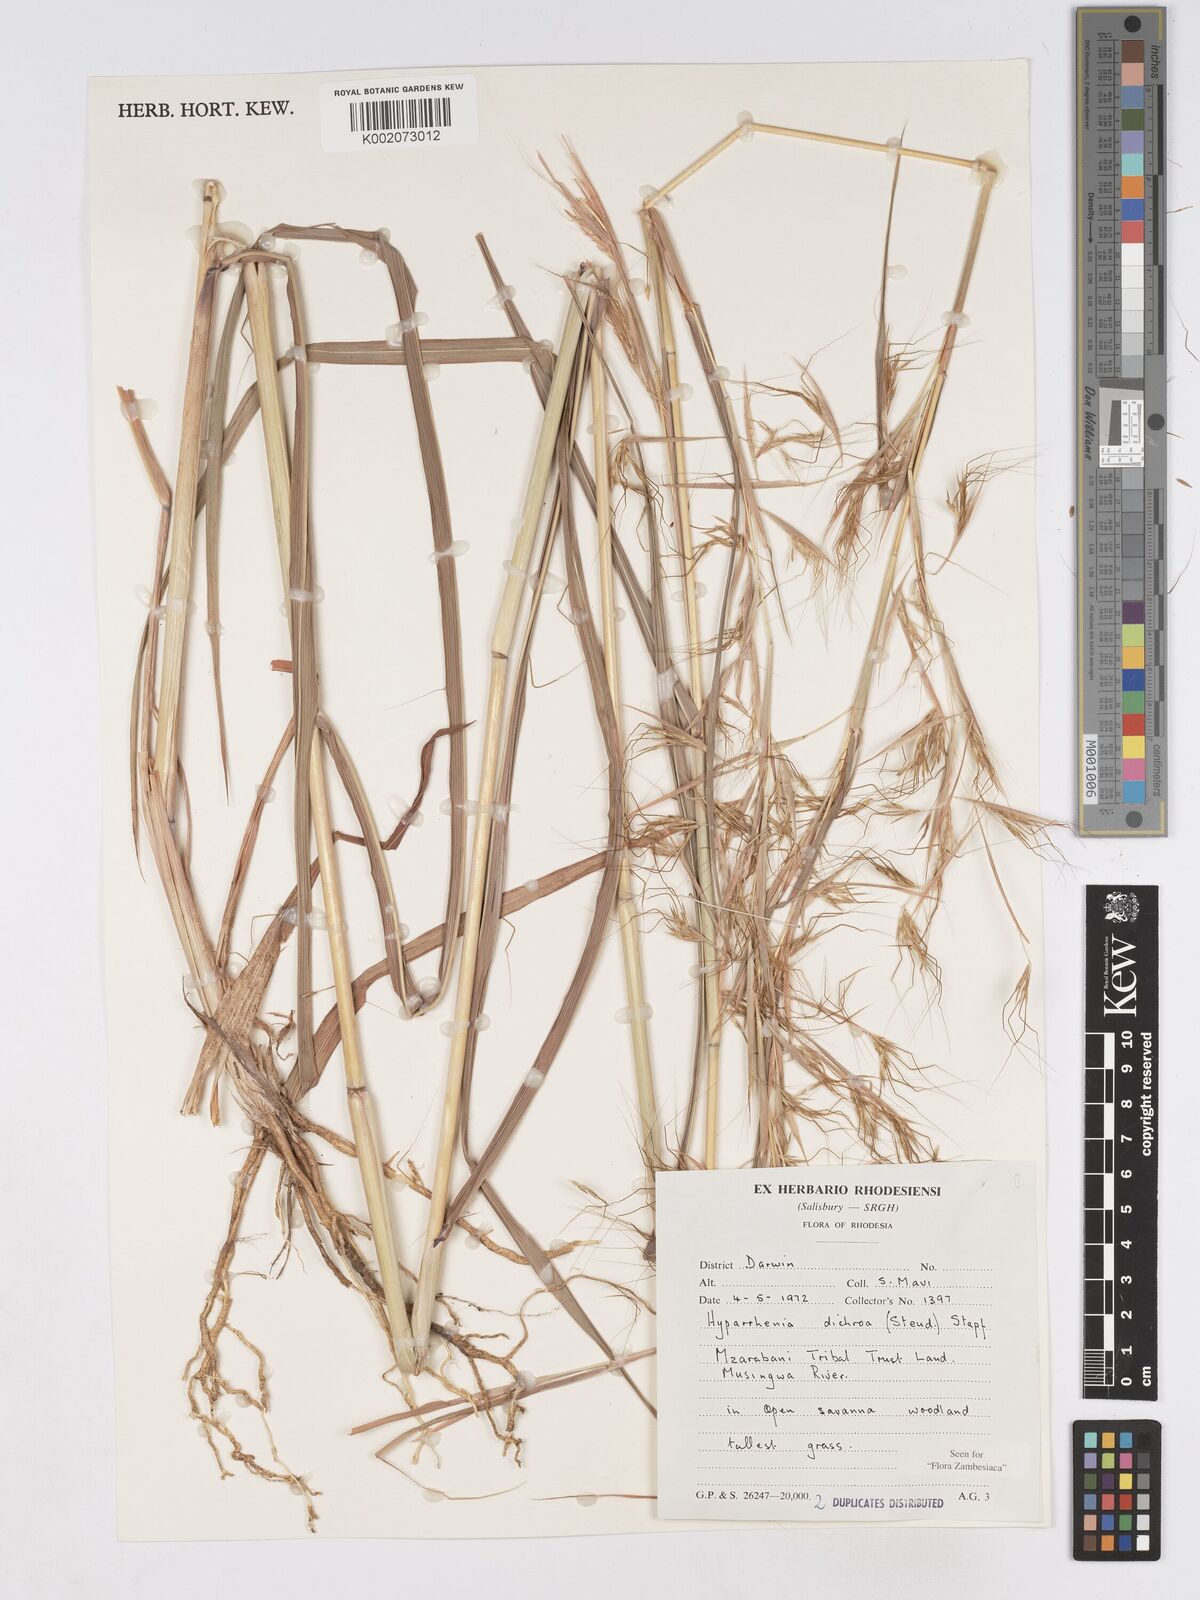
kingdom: Plantae
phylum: Tracheophyta
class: Liliopsida
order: Poales
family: Poaceae
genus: Hyparrhenia
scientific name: Hyparrhenia dichroa
